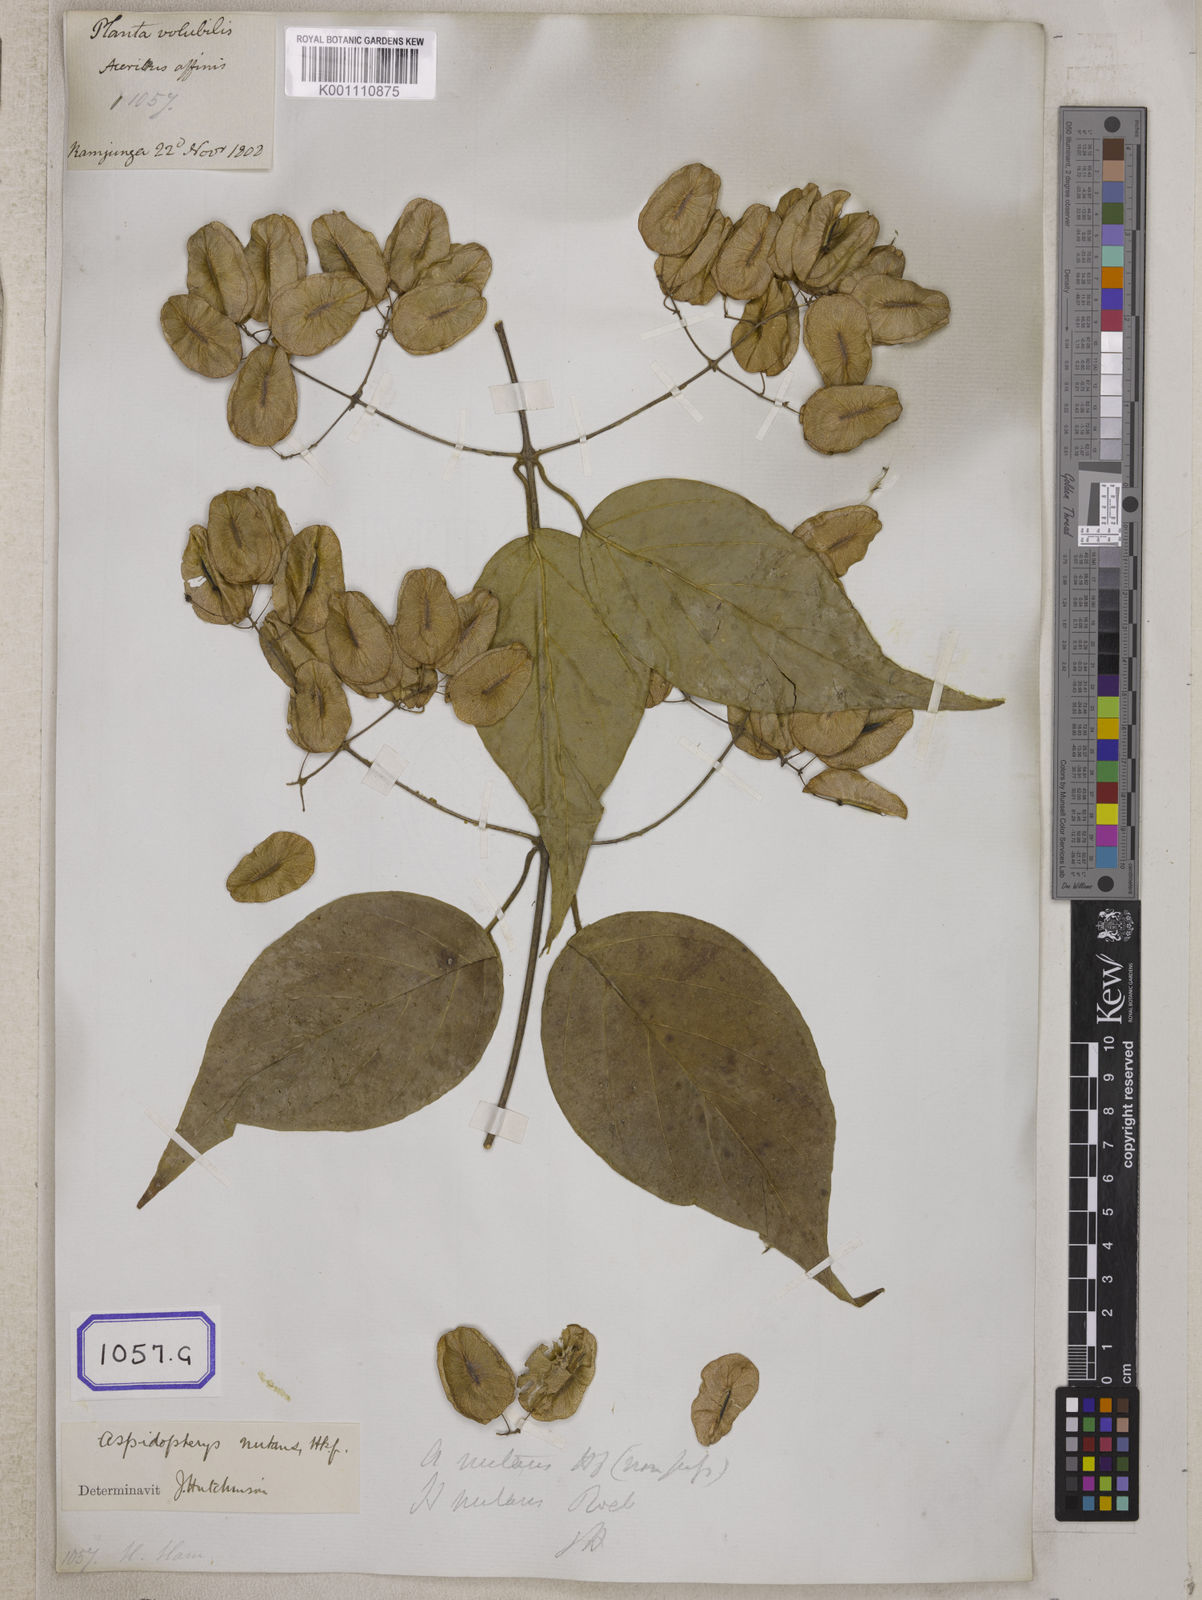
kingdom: Plantae
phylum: Tracheophyta
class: Magnoliopsida
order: Malpighiales
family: Malpighiaceae
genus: Aspidopterys
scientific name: Aspidopterys indica
